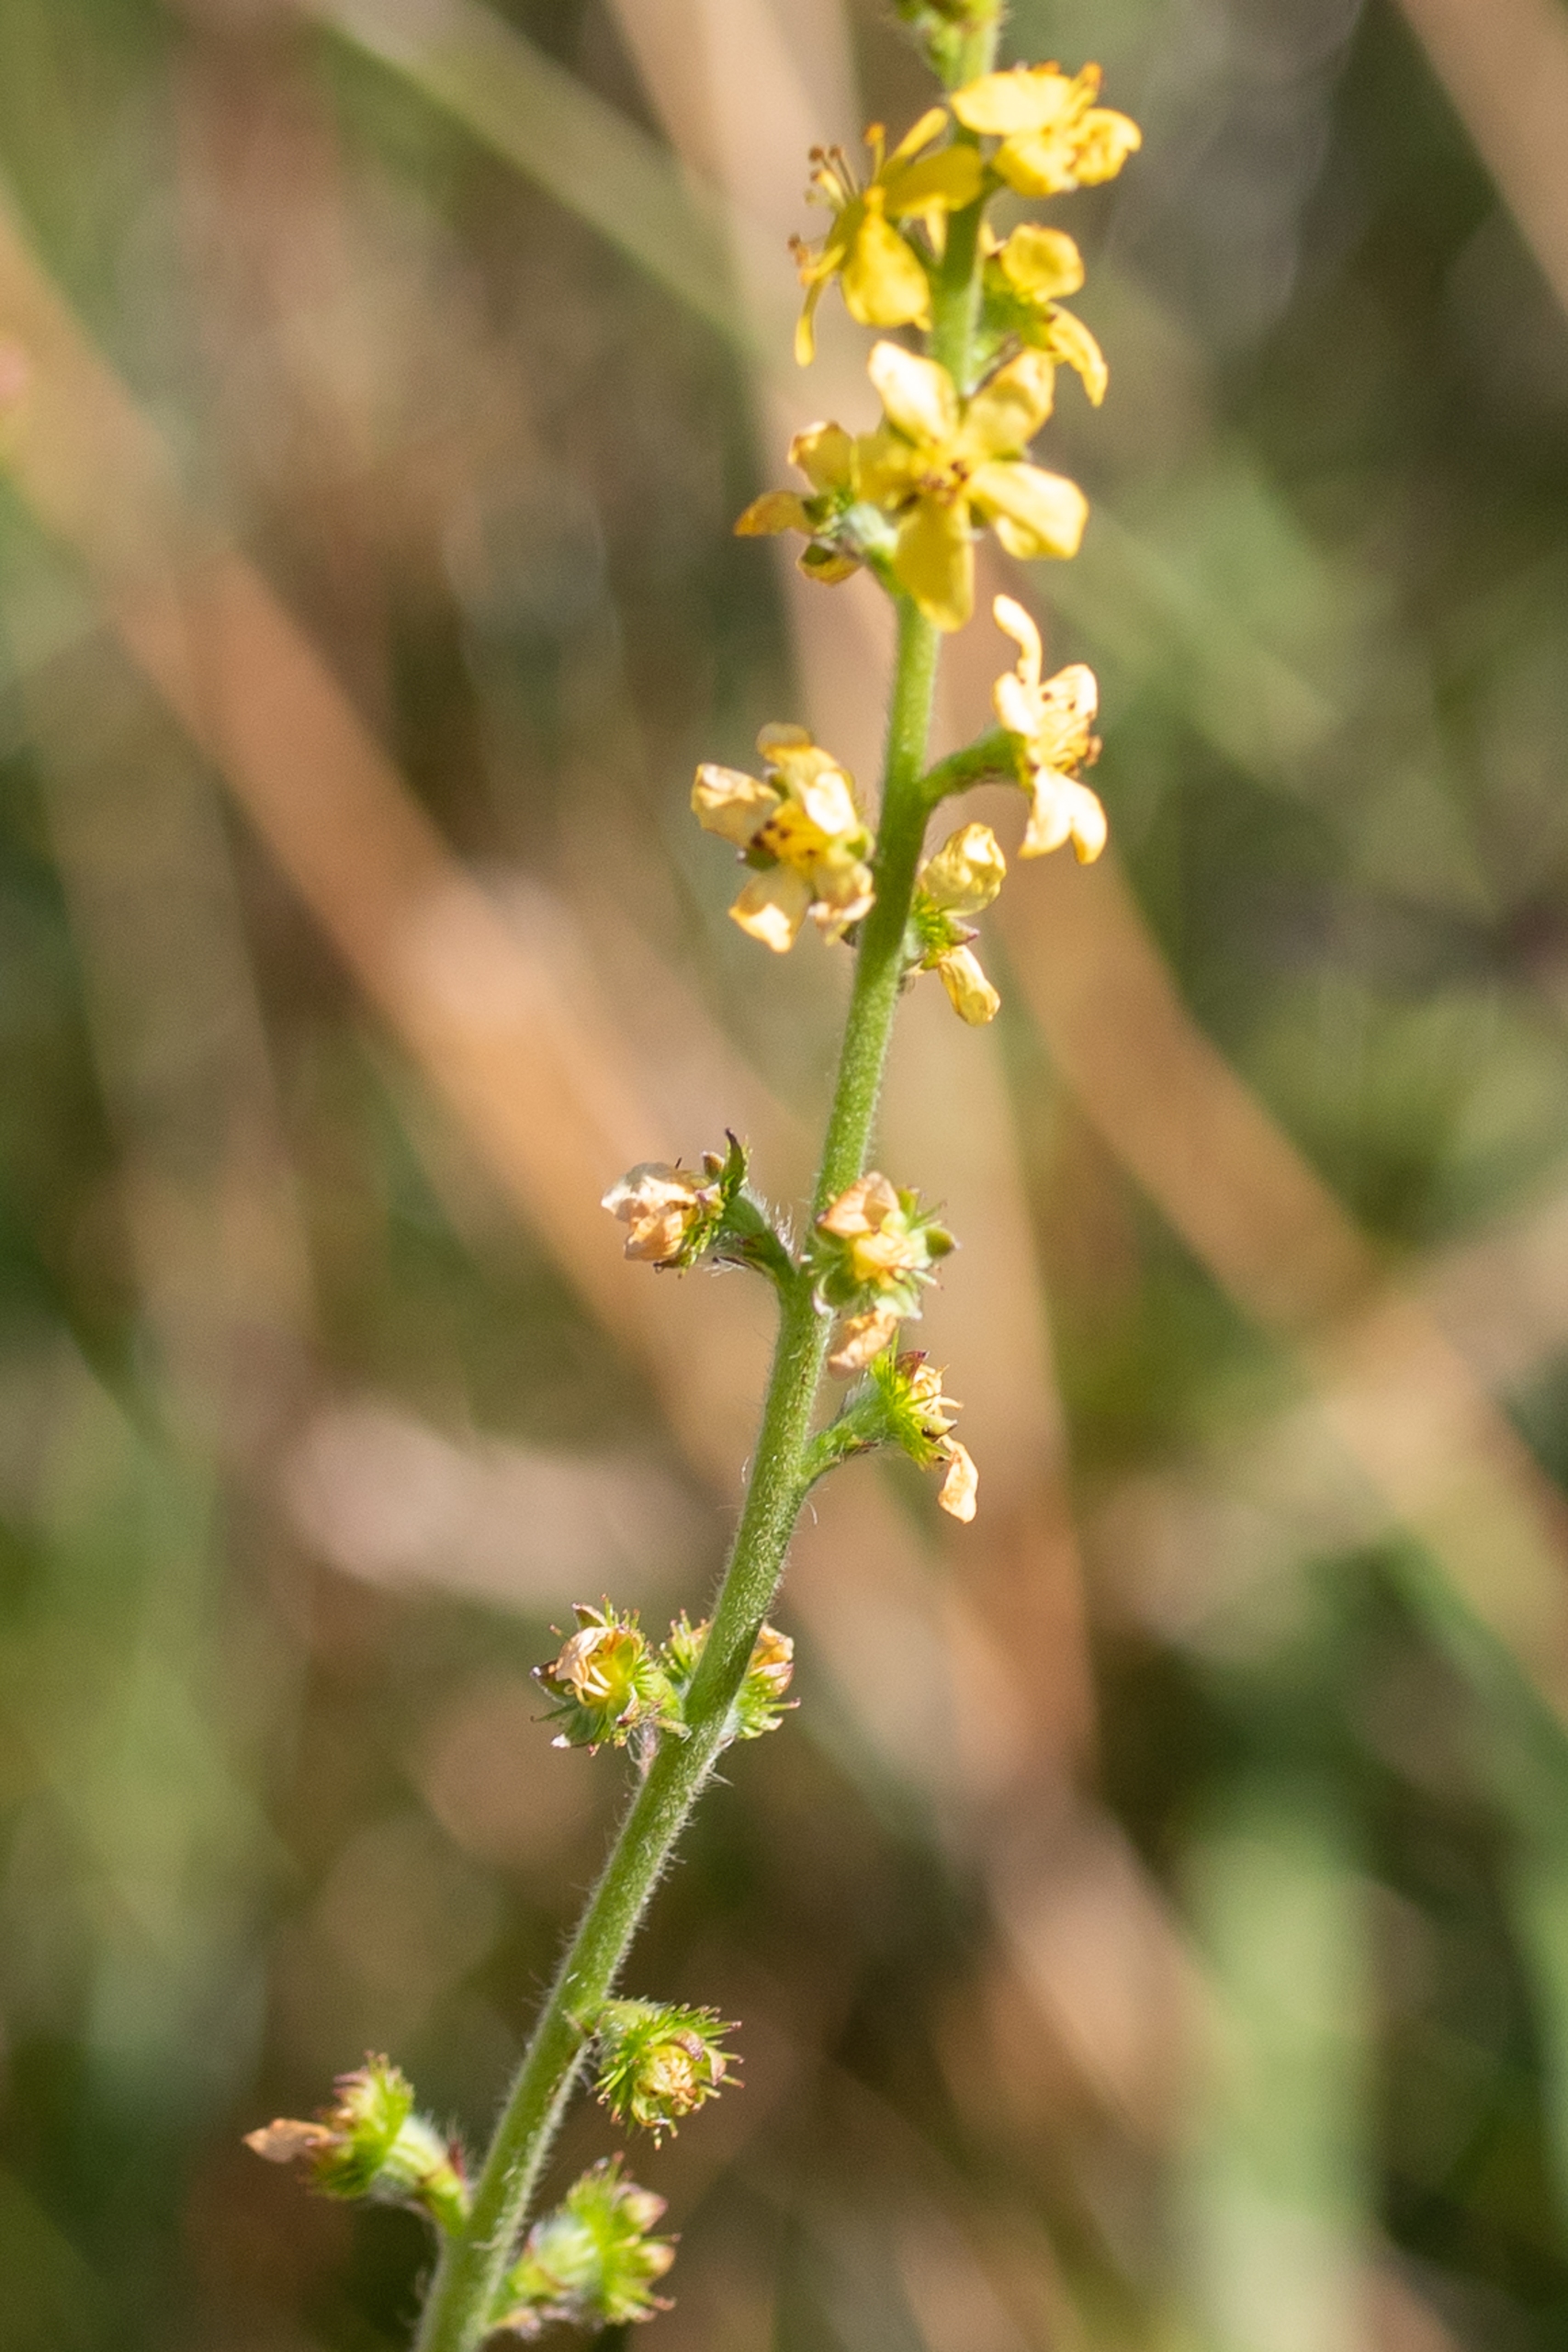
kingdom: Plantae
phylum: Tracheophyta
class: Magnoliopsida
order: Rosales
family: Rosaceae
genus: Agrimonia
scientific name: Agrimonia eupatoria
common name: Almindelig agermåne
